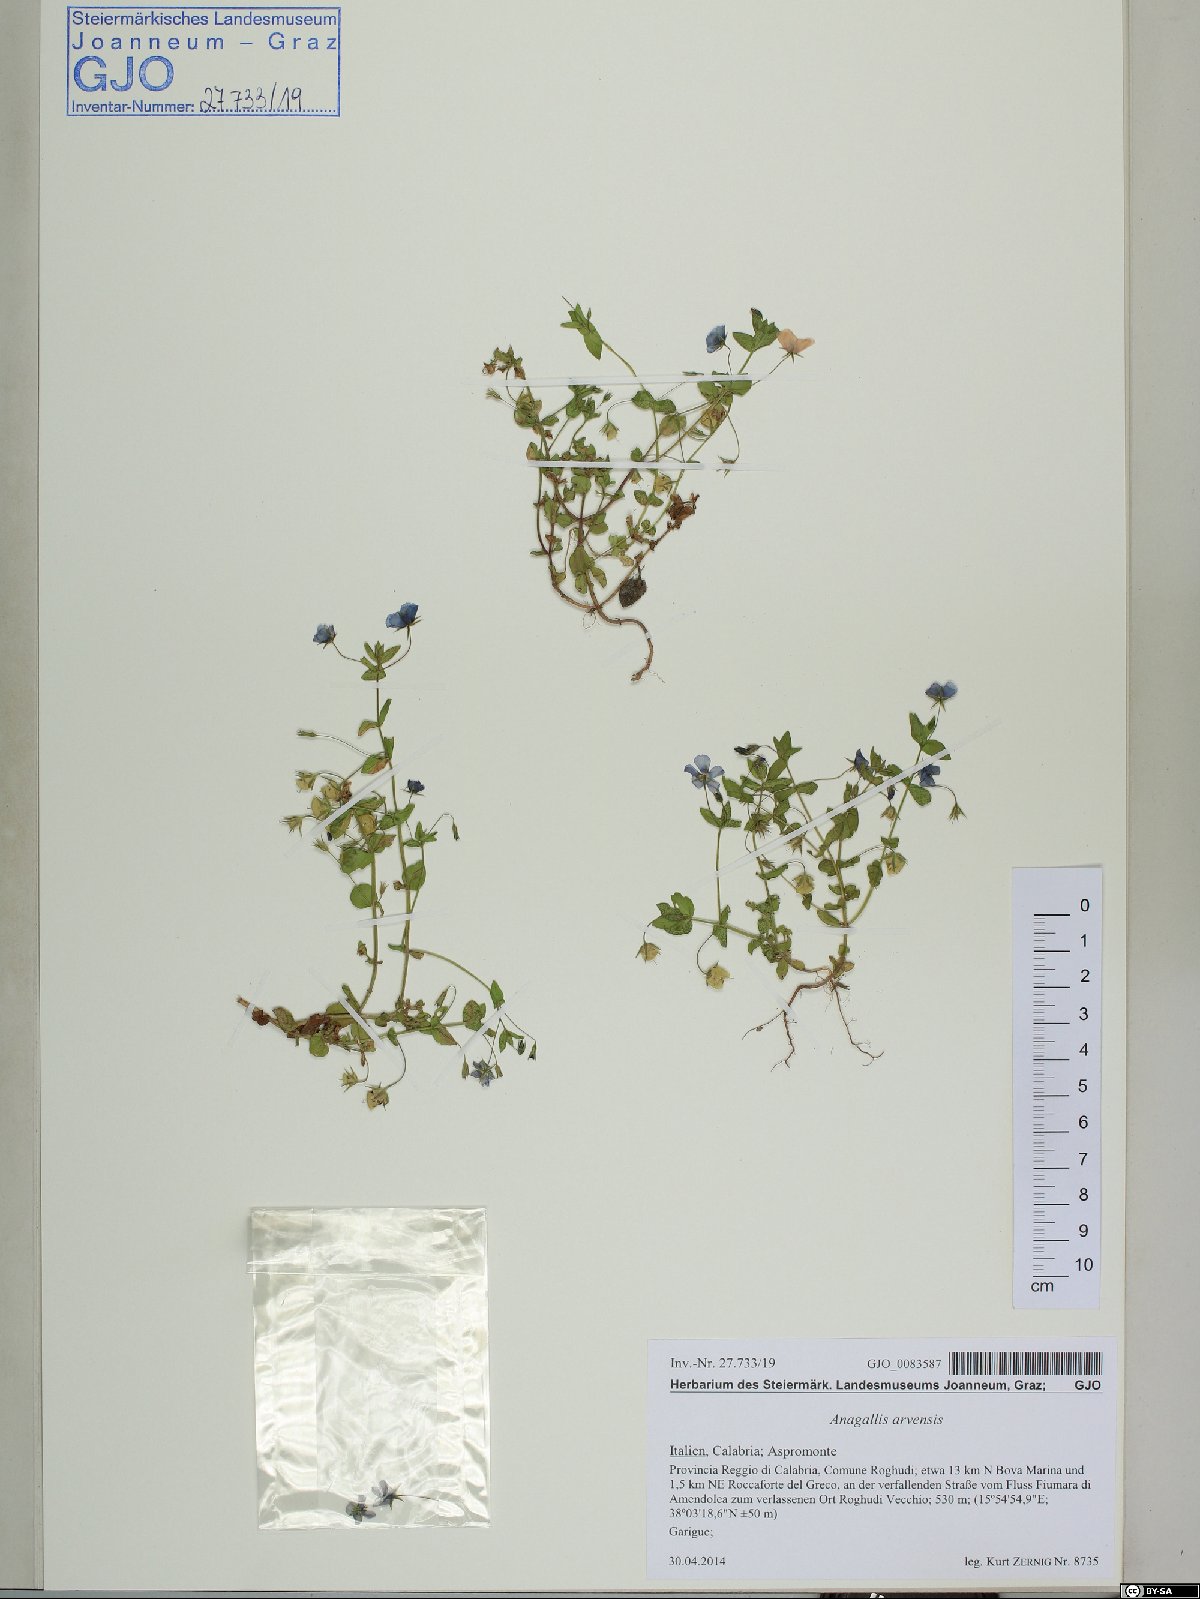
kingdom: Plantae
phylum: Tracheophyta
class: Magnoliopsida
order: Ericales
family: Primulaceae
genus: Lysimachia
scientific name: Lysimachia arvensis
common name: Scarlet pimpernel
